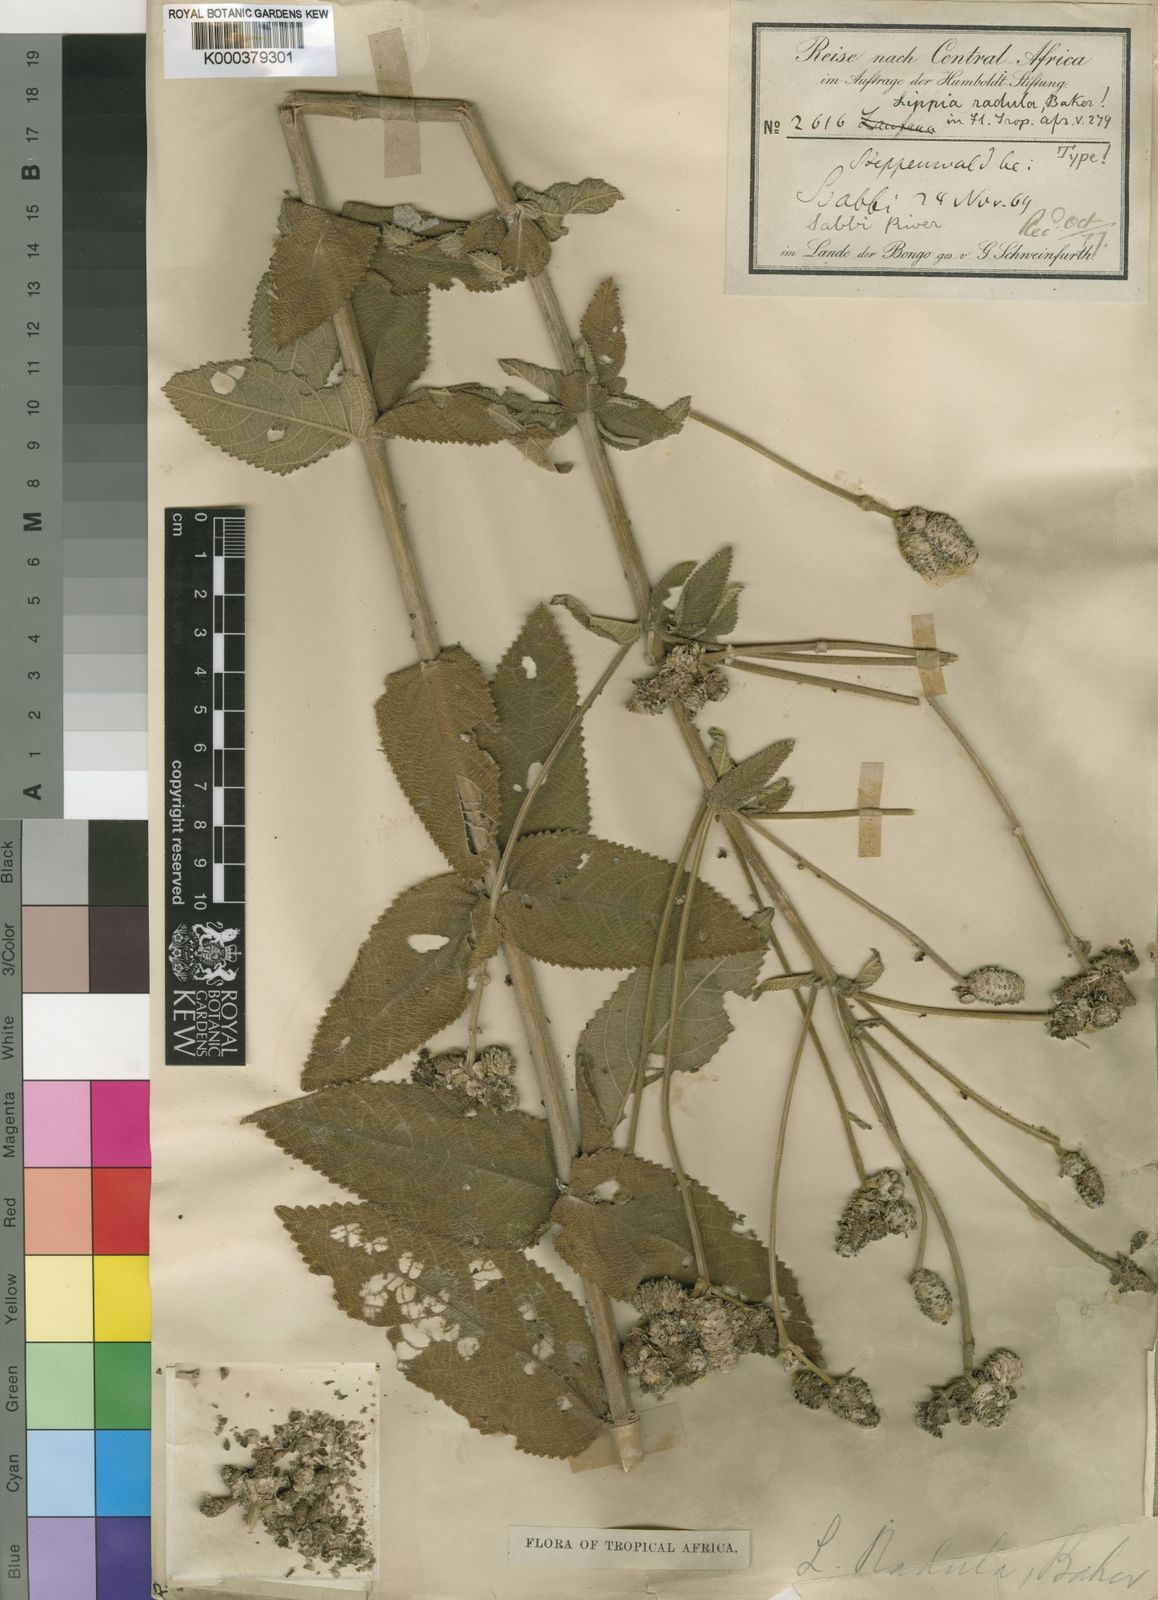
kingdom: Plantae
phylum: Tracheophyta
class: Magnoliopsida
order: Lamiales
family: Verbenaceae
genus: Lippia
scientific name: Lippia radula
